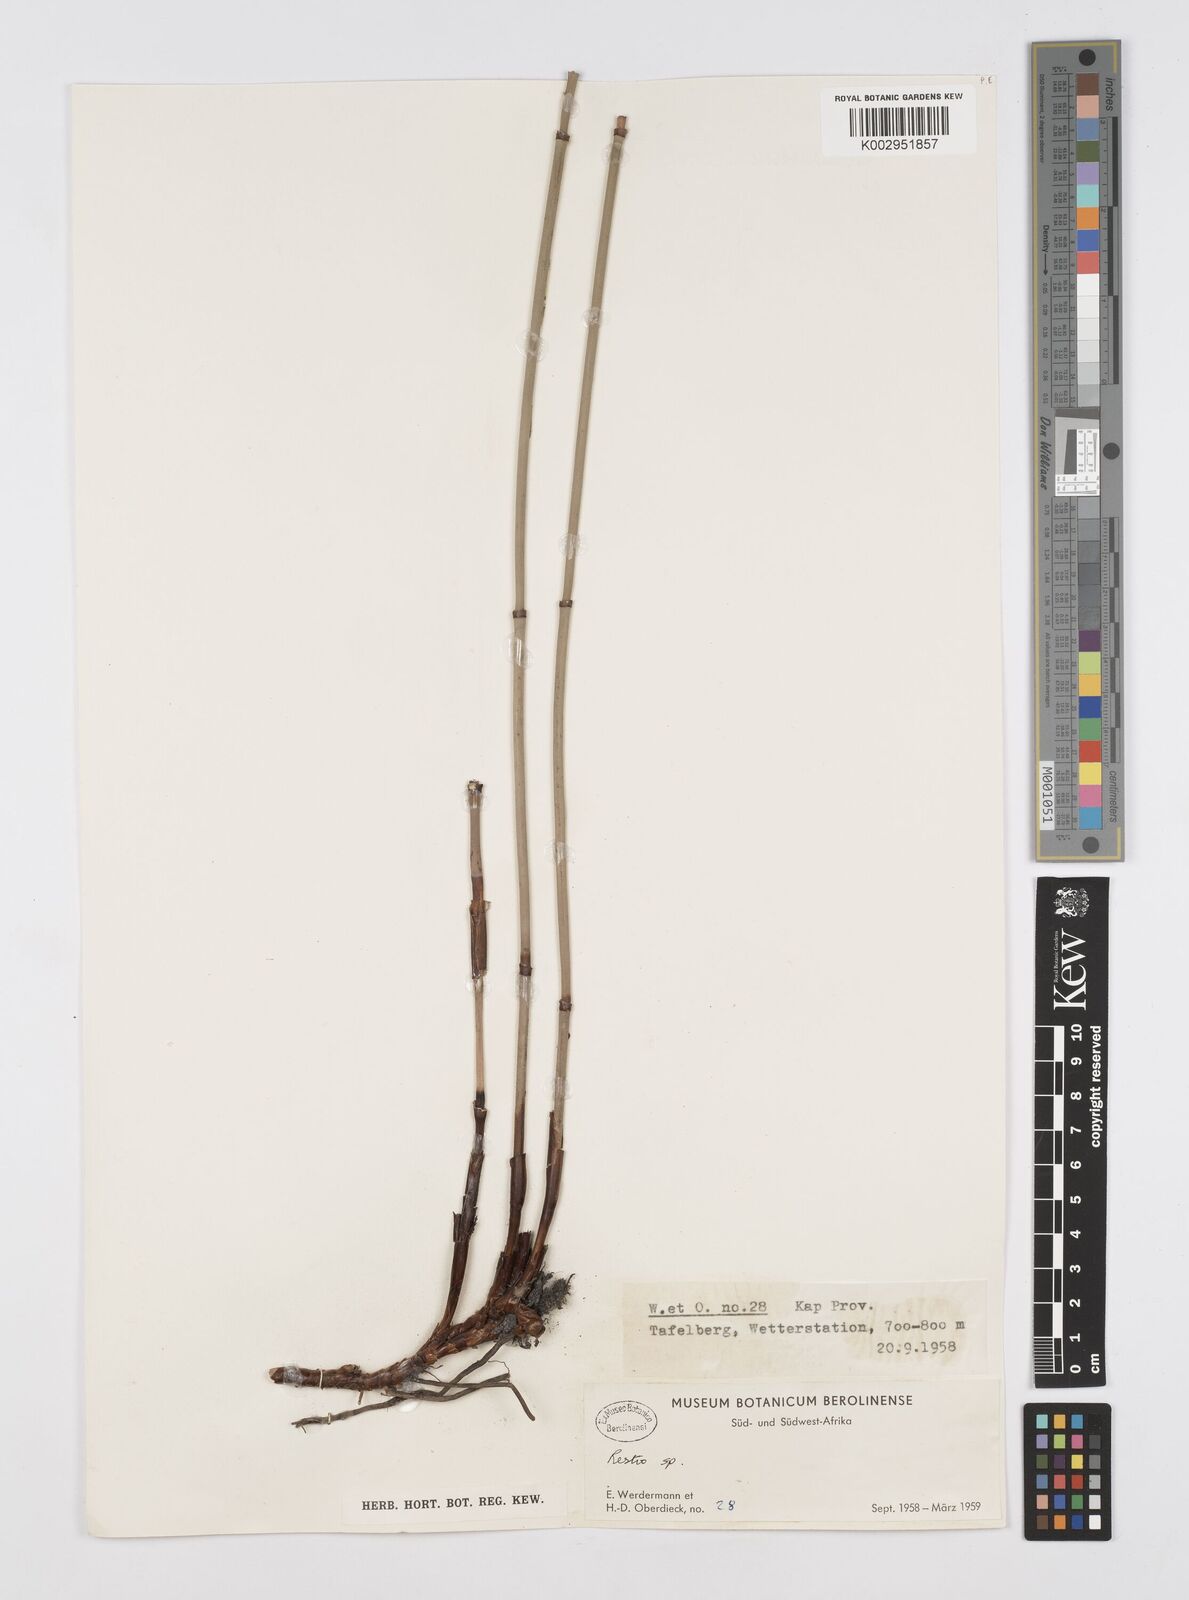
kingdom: Plantae
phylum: Tracheophyta
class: Liliopsida
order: Poales
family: Restionaceae
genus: Restio
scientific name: Restio
